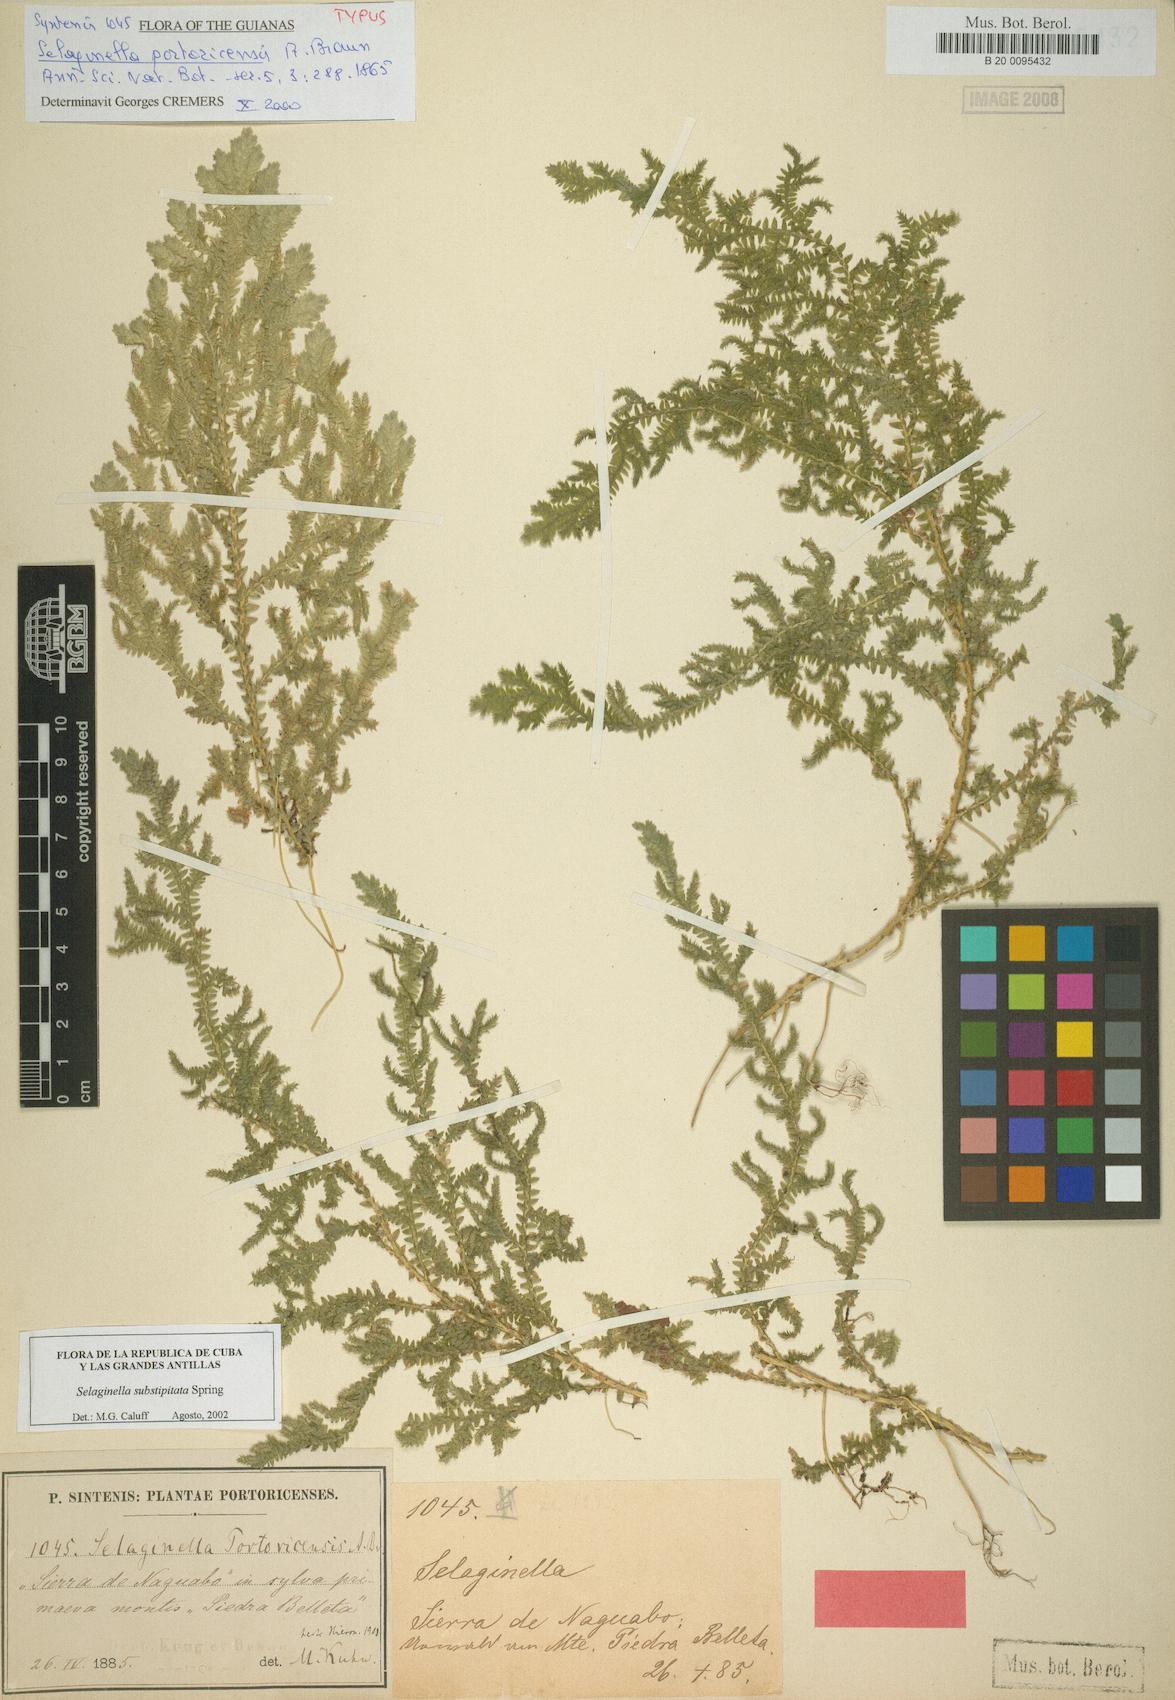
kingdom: Plantae
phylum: Tracheophyta
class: Lycopodiopsida
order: Selaginellales
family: Selaginellaceae
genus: Selaginella
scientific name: Selaginella substipitata
